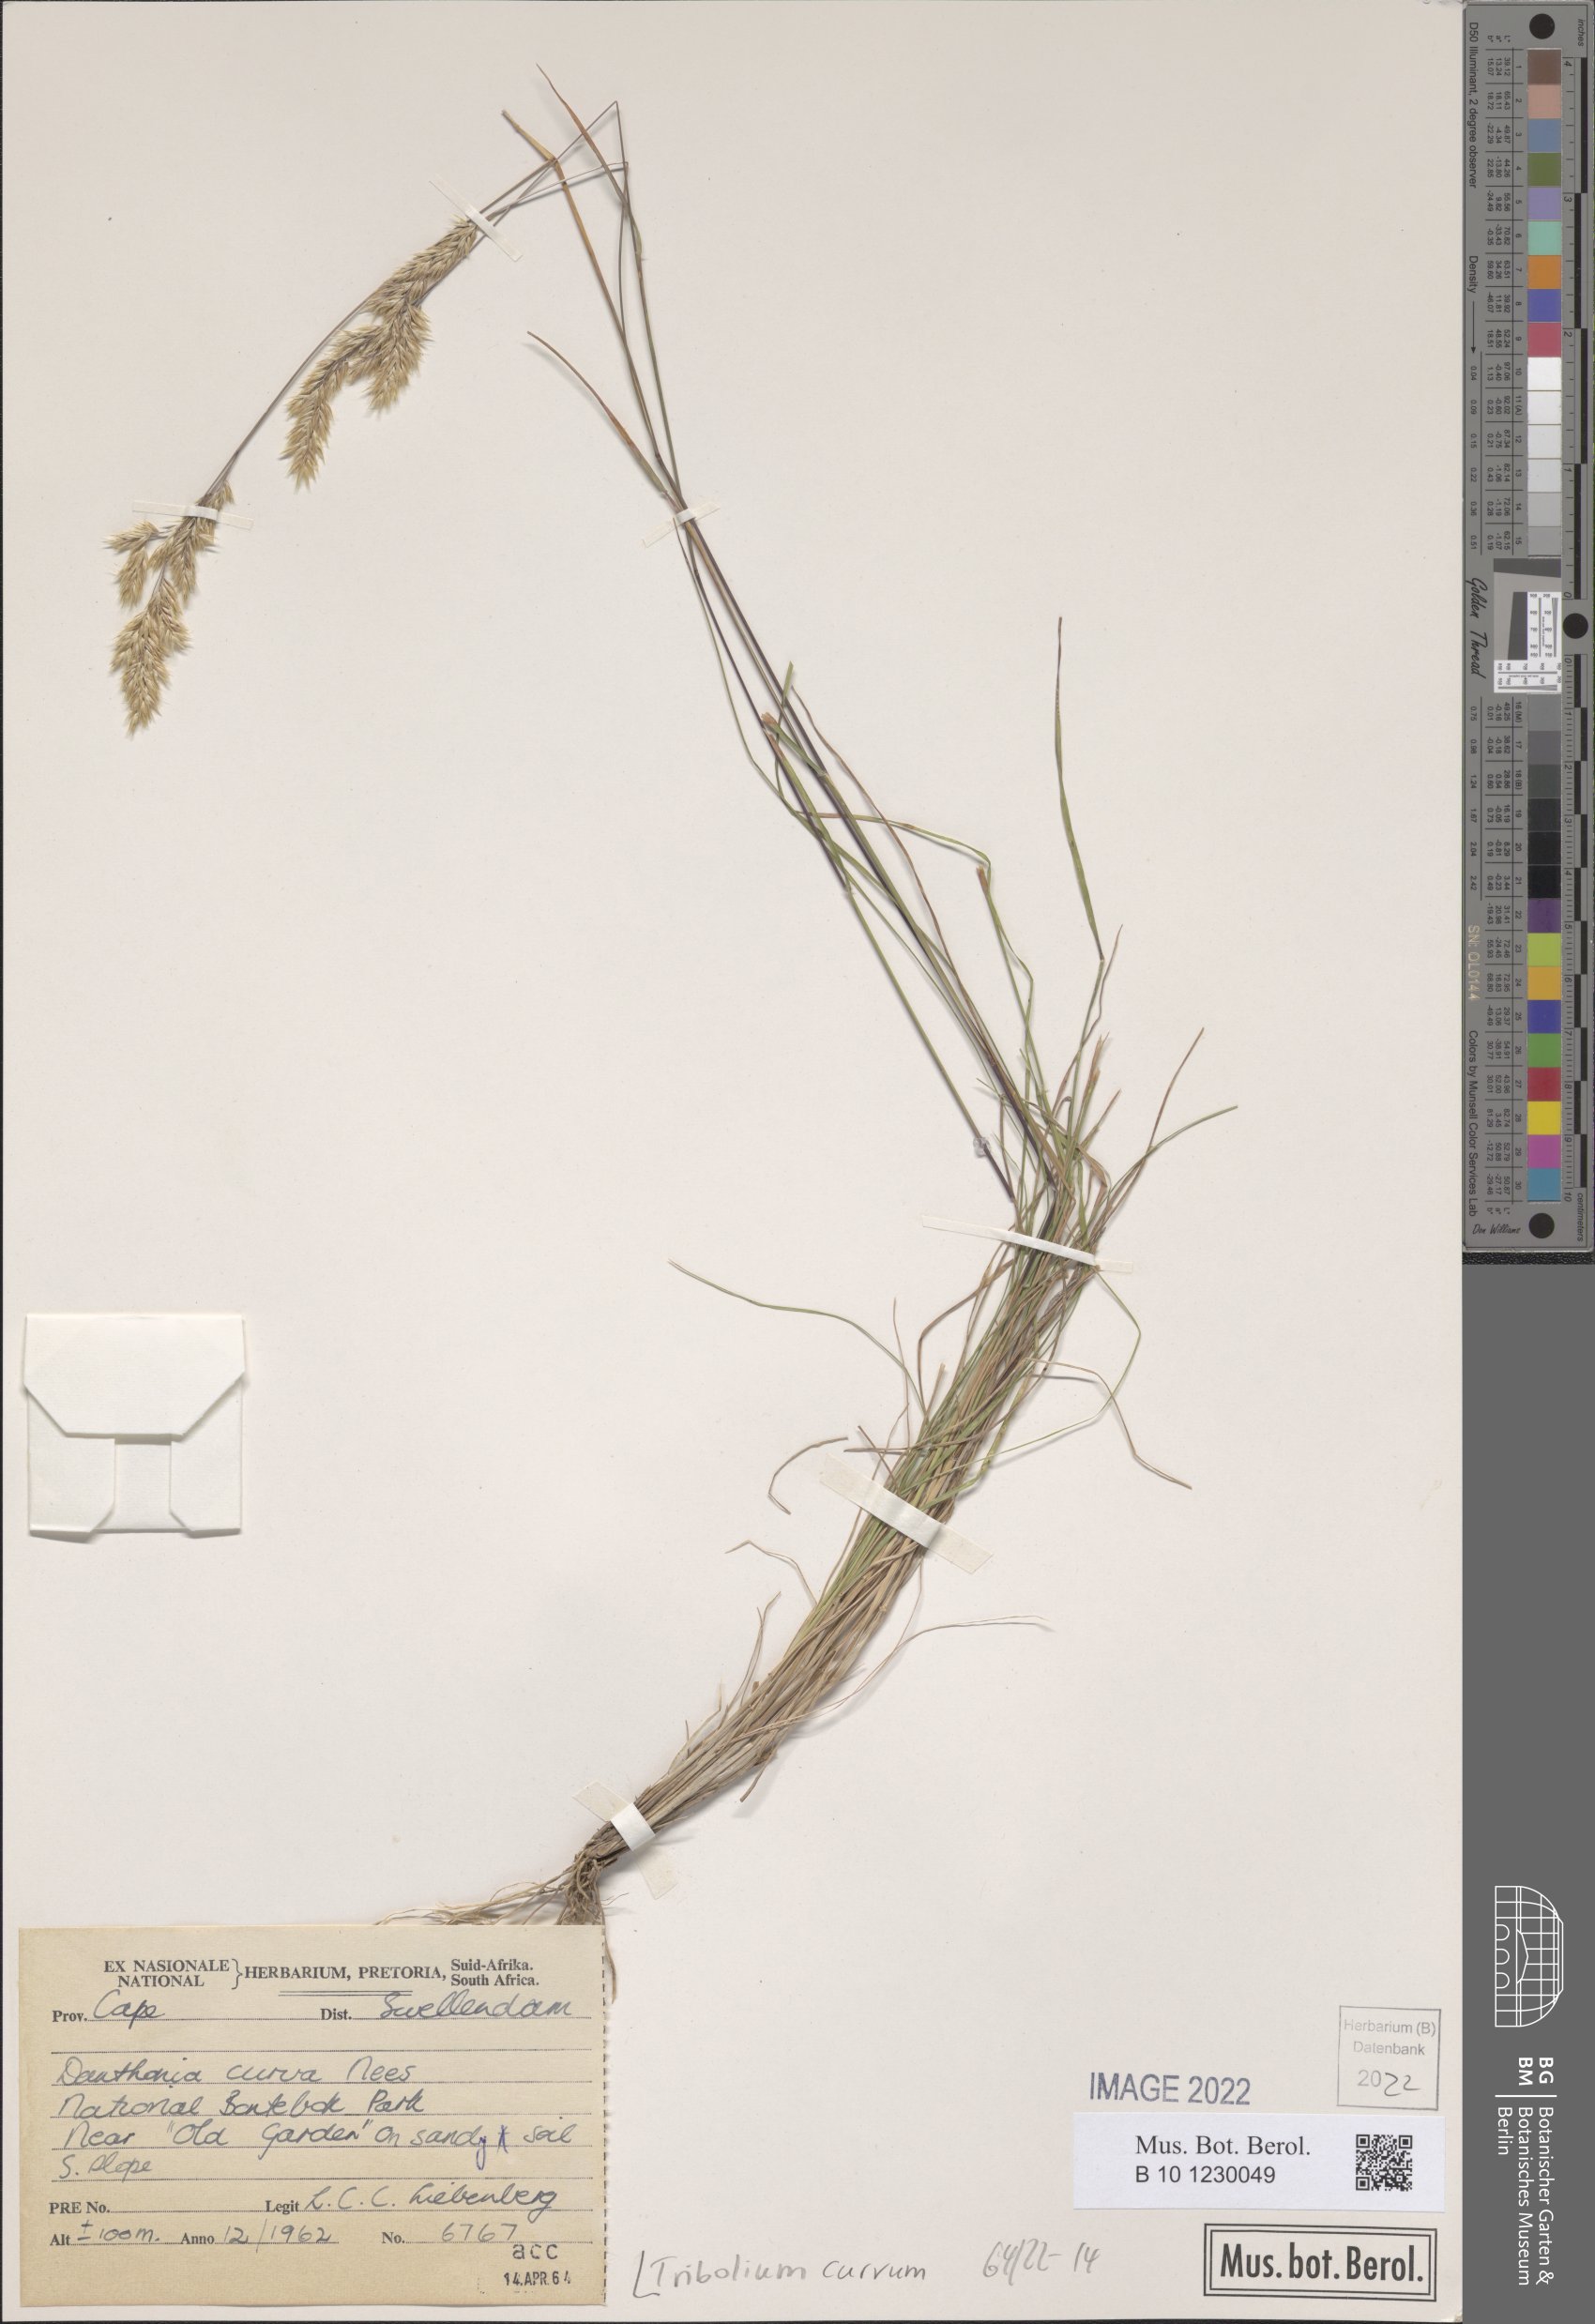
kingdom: Plantae
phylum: Tracheophyta
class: Liliopsida
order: Poales
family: Poaceae
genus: Tribolium
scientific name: Tribolium curvum
